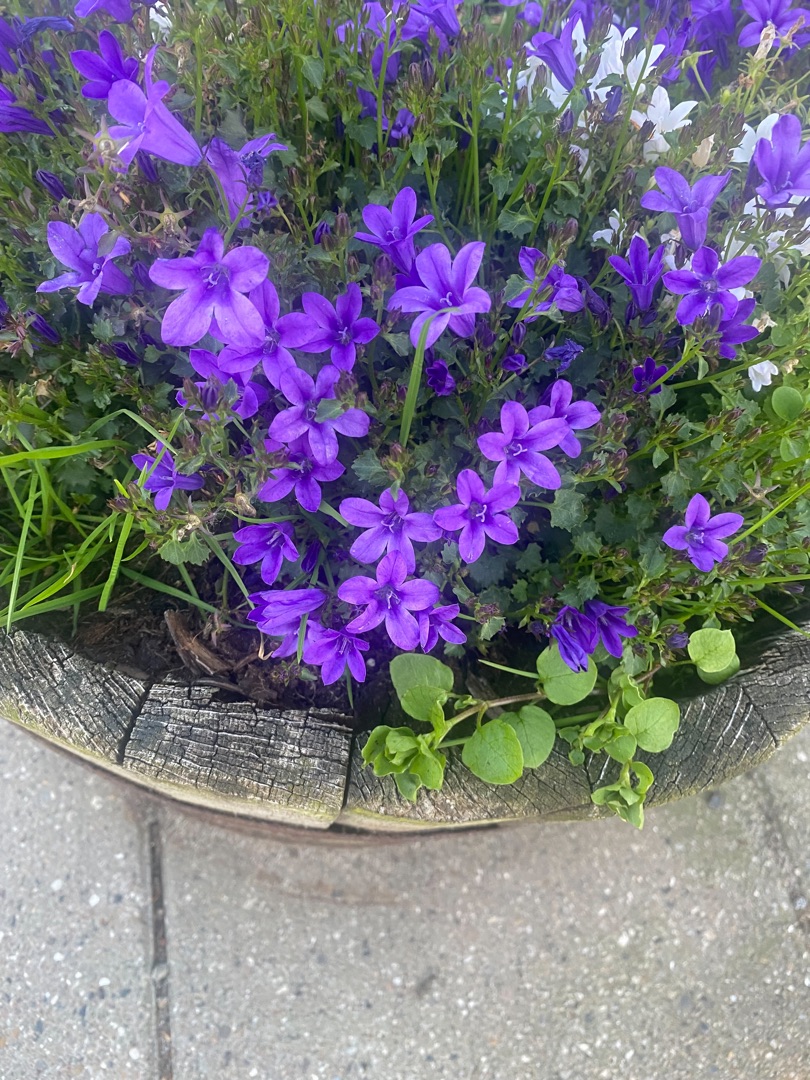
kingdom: Plantae
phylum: Tracheophyta
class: Magnoliopsida
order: Asterales
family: Campanulaceae
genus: Campanula
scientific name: Campanula poscharskyana
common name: Stjerne-klokke
